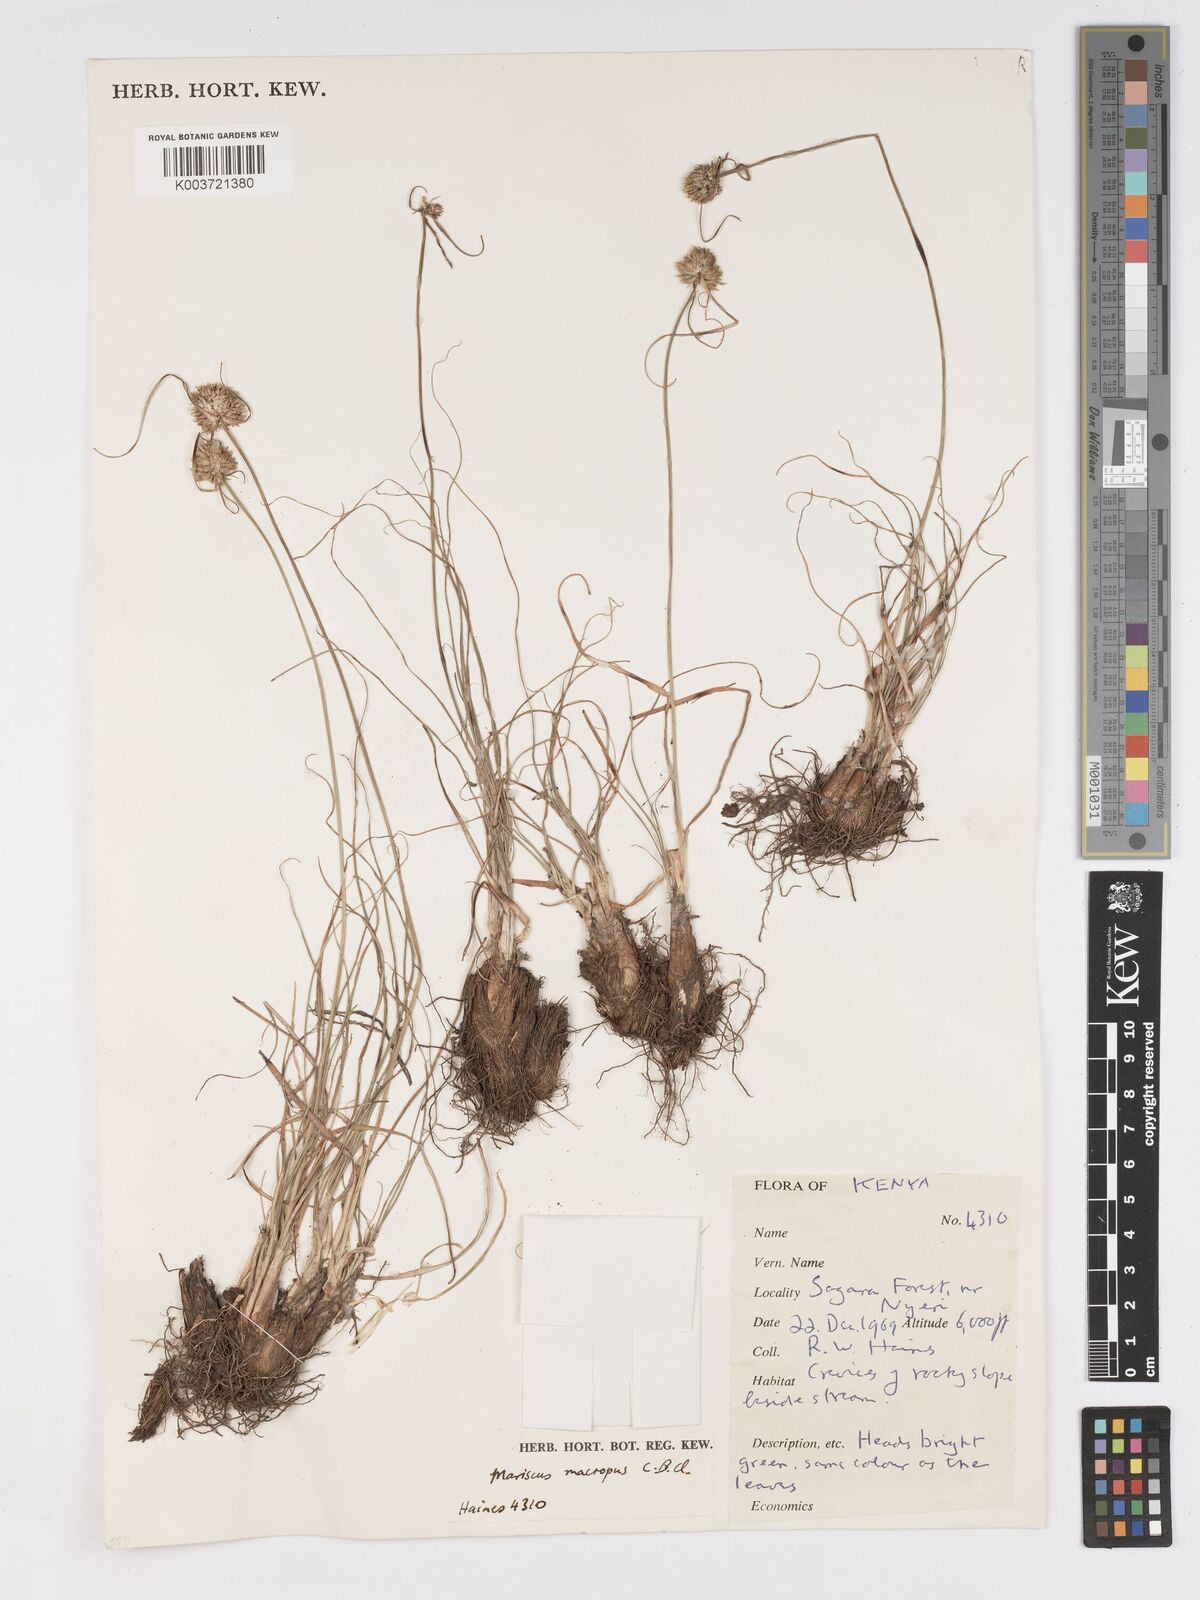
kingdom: Plantae
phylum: Tracheophyta
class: Liliopsida
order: Poales
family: Cyperaceae
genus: Cyperus
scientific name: Cyperus mollipes
